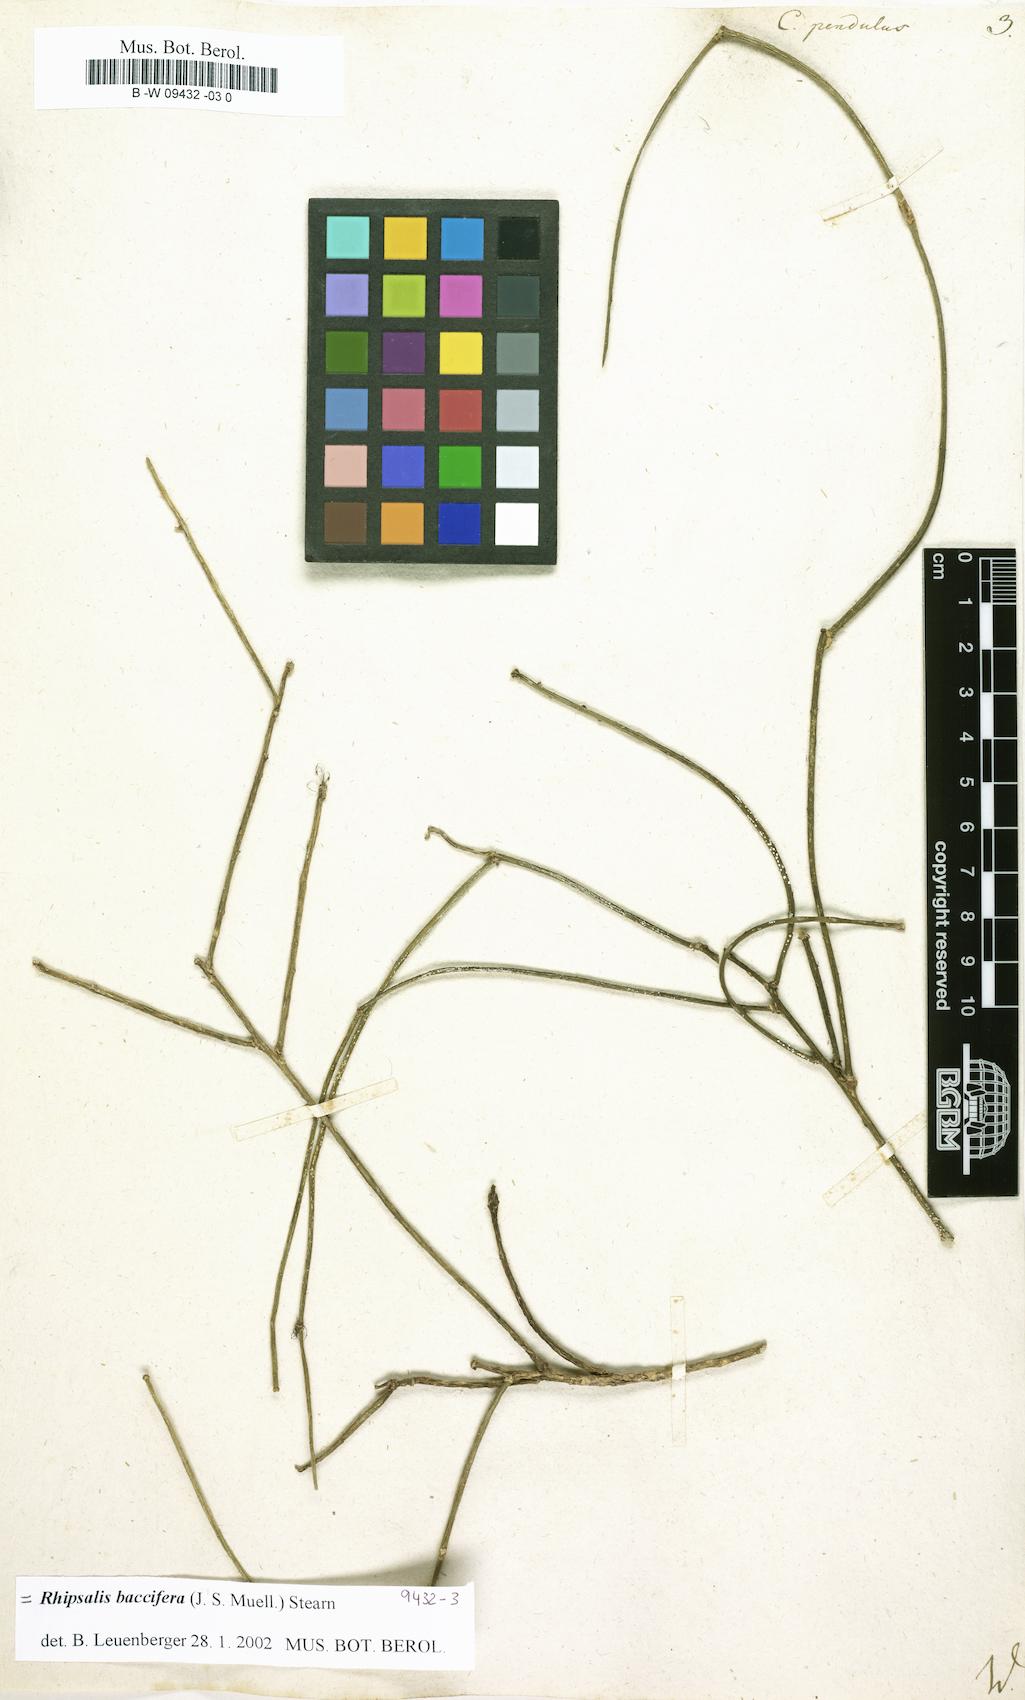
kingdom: Plantae
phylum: Tracheophyta
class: Magnoliopsida
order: Caryophyllales
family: Cactaceae
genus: Rhipsalis
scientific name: Rhipsalis baccifera
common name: Mistletoe cactus
